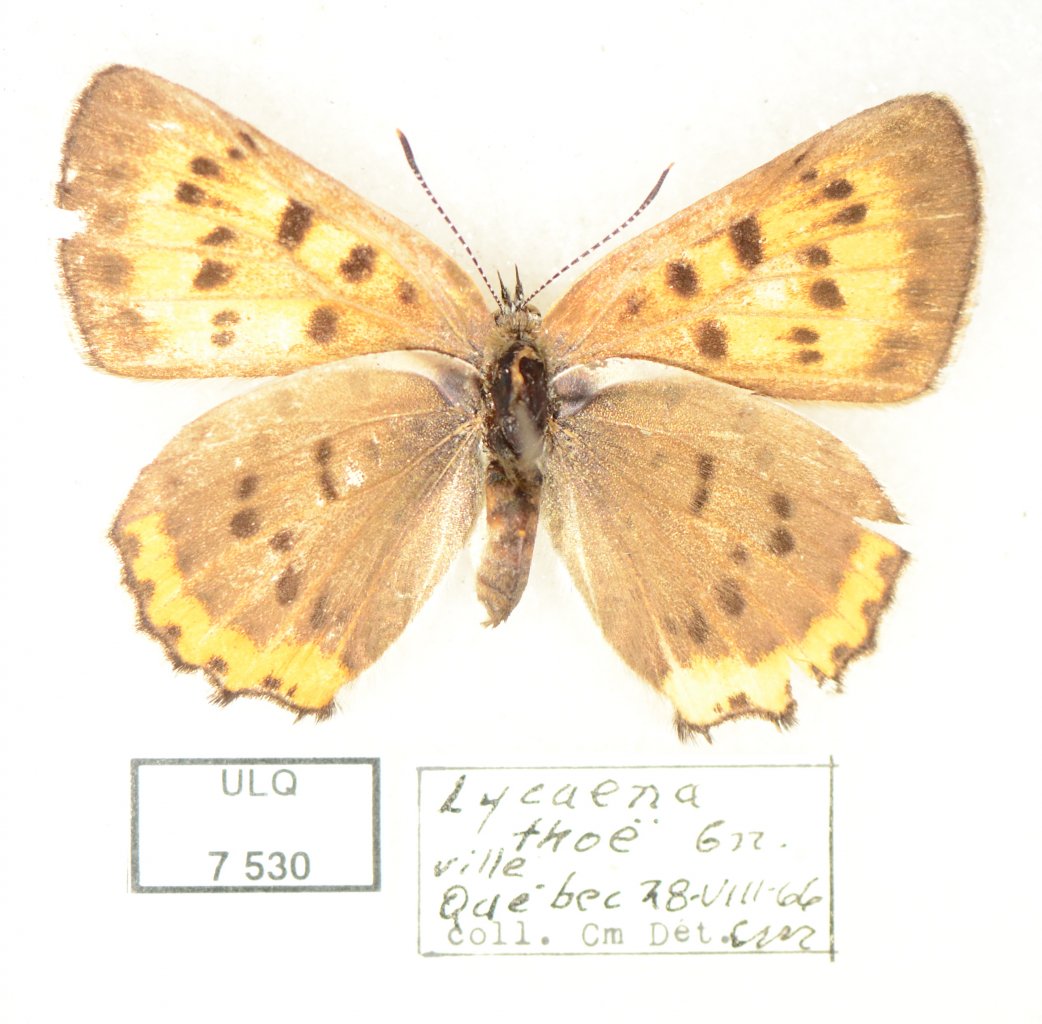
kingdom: Animalia
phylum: Arthropoda
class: Insecta
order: Lepidoptera
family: Sesiidae
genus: Sesia
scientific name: Sesia Lycaena hyllus
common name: Bronze Copper
